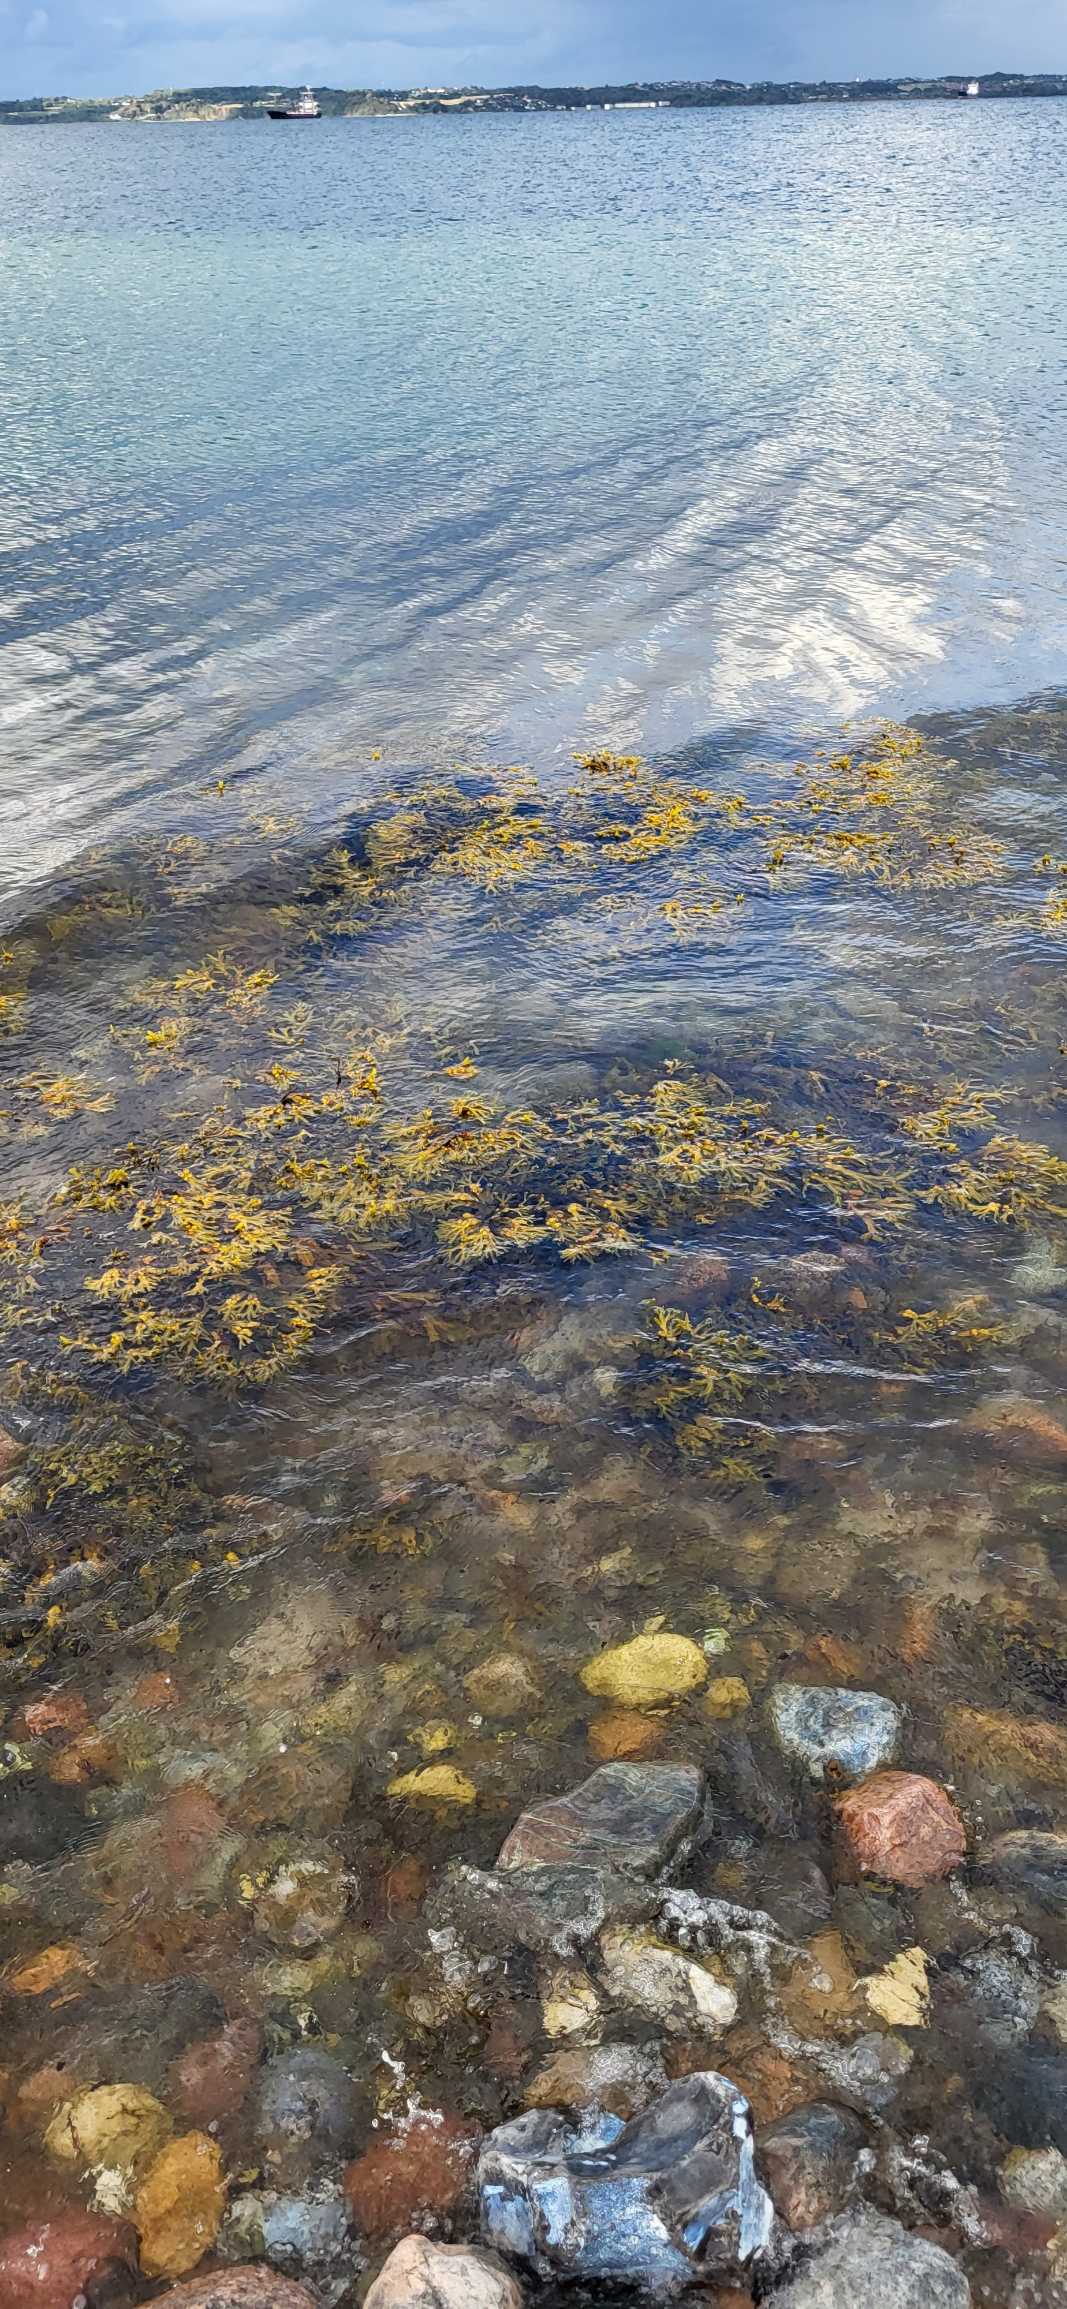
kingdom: Chromista
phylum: Ochrophyta
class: Phaeophyceae
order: Fucales
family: Fucaceae
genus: Fucus
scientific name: Fucus vesiculosus
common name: Blæretang
